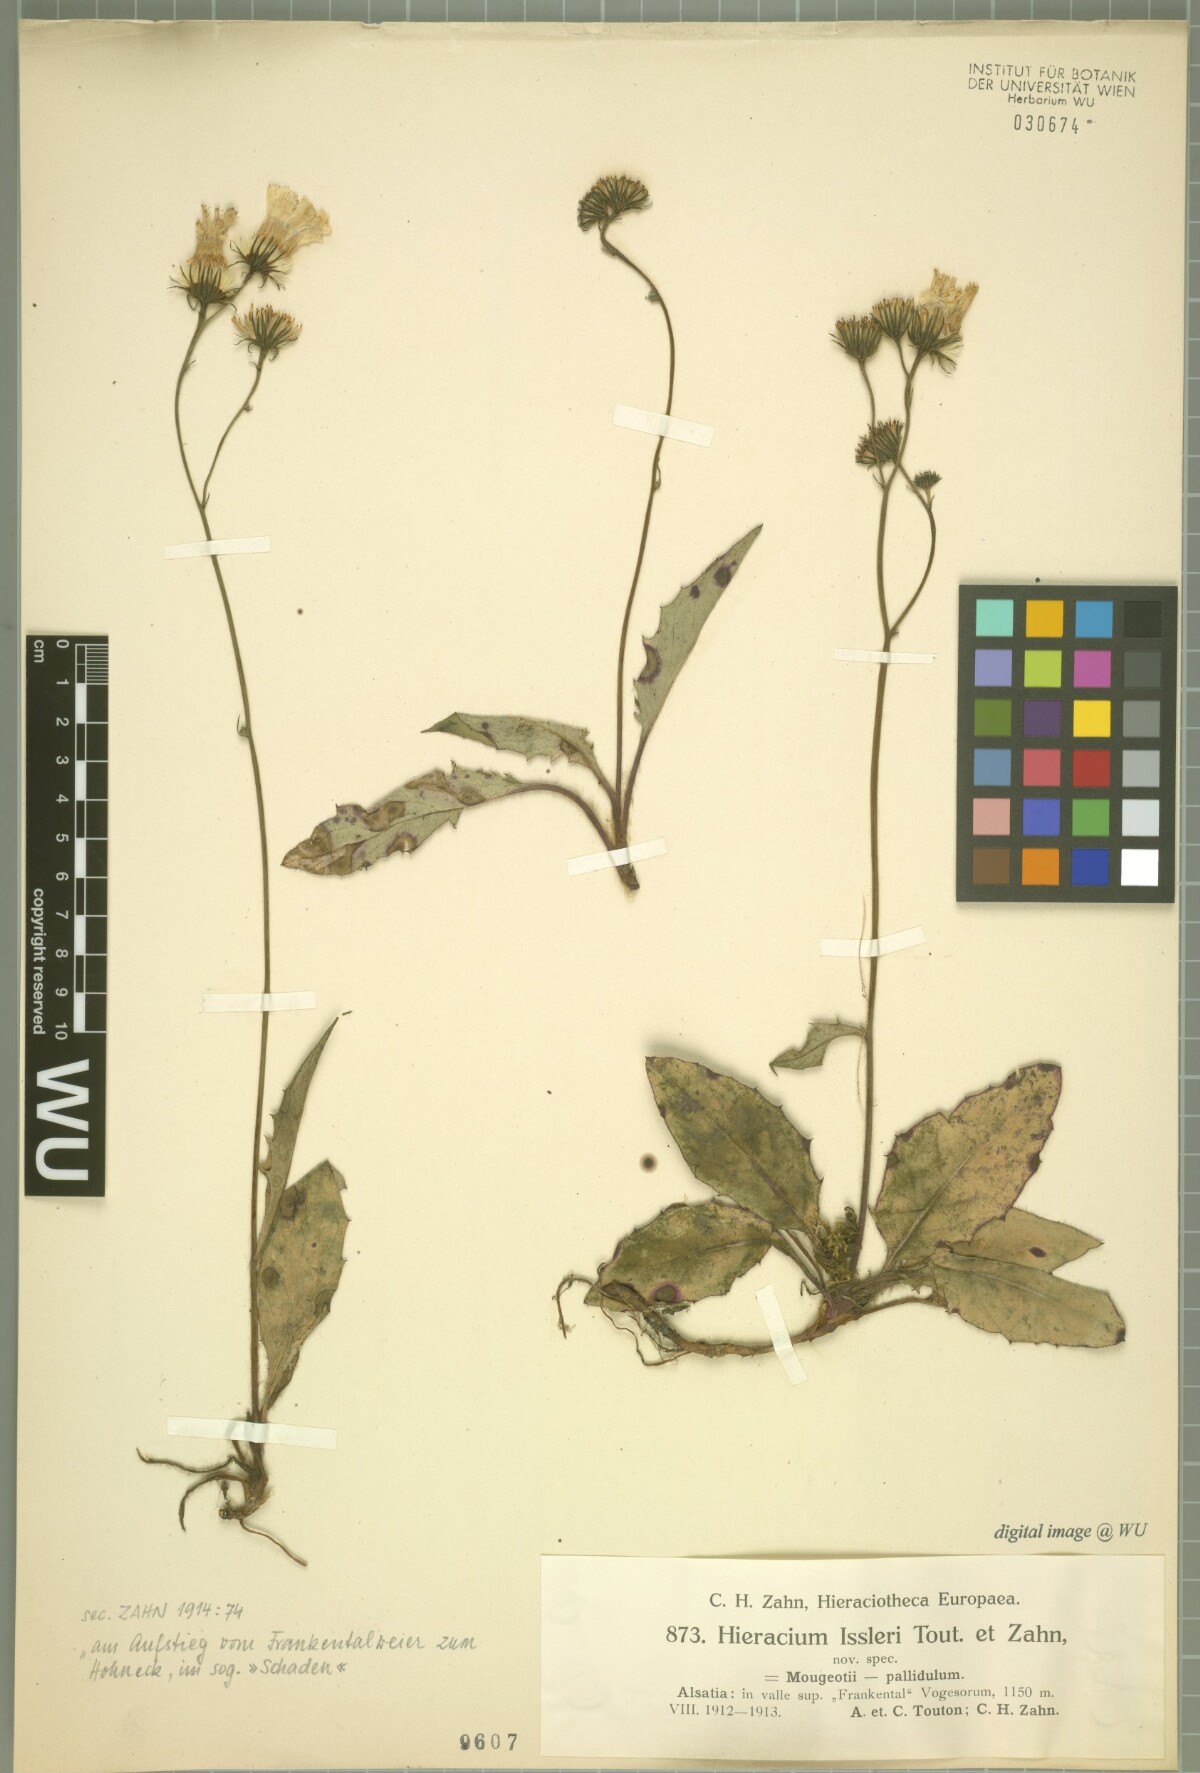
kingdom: Plantae
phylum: Tracheophyta
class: Magnoliopsida
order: Asterales
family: Asteraceae
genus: Hieracium
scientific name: Hieracium juranum
